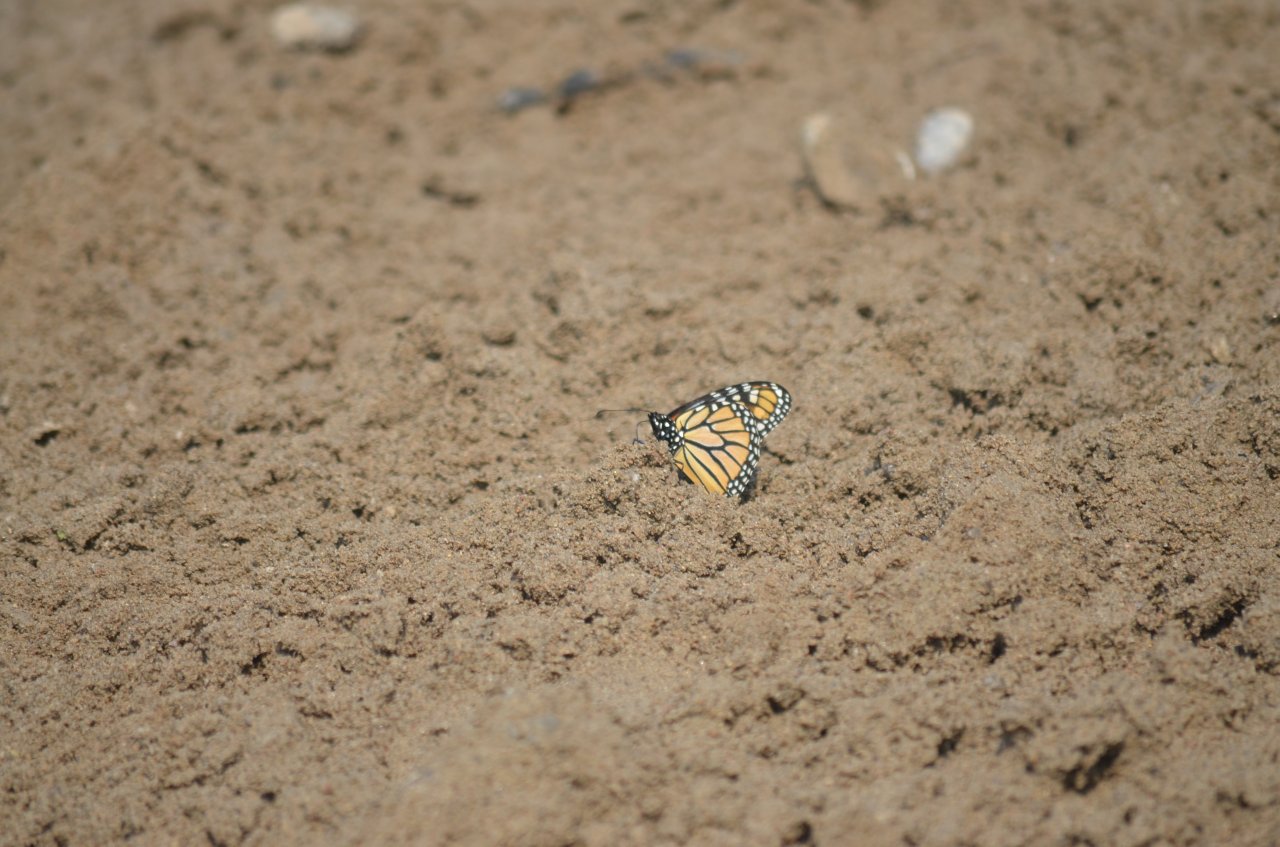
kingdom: Animalia
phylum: Arthropoda
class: Insecta
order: Lepidoptera
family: Nymphalidae
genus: Danaus
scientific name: Danaus plexippus
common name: Monarch
